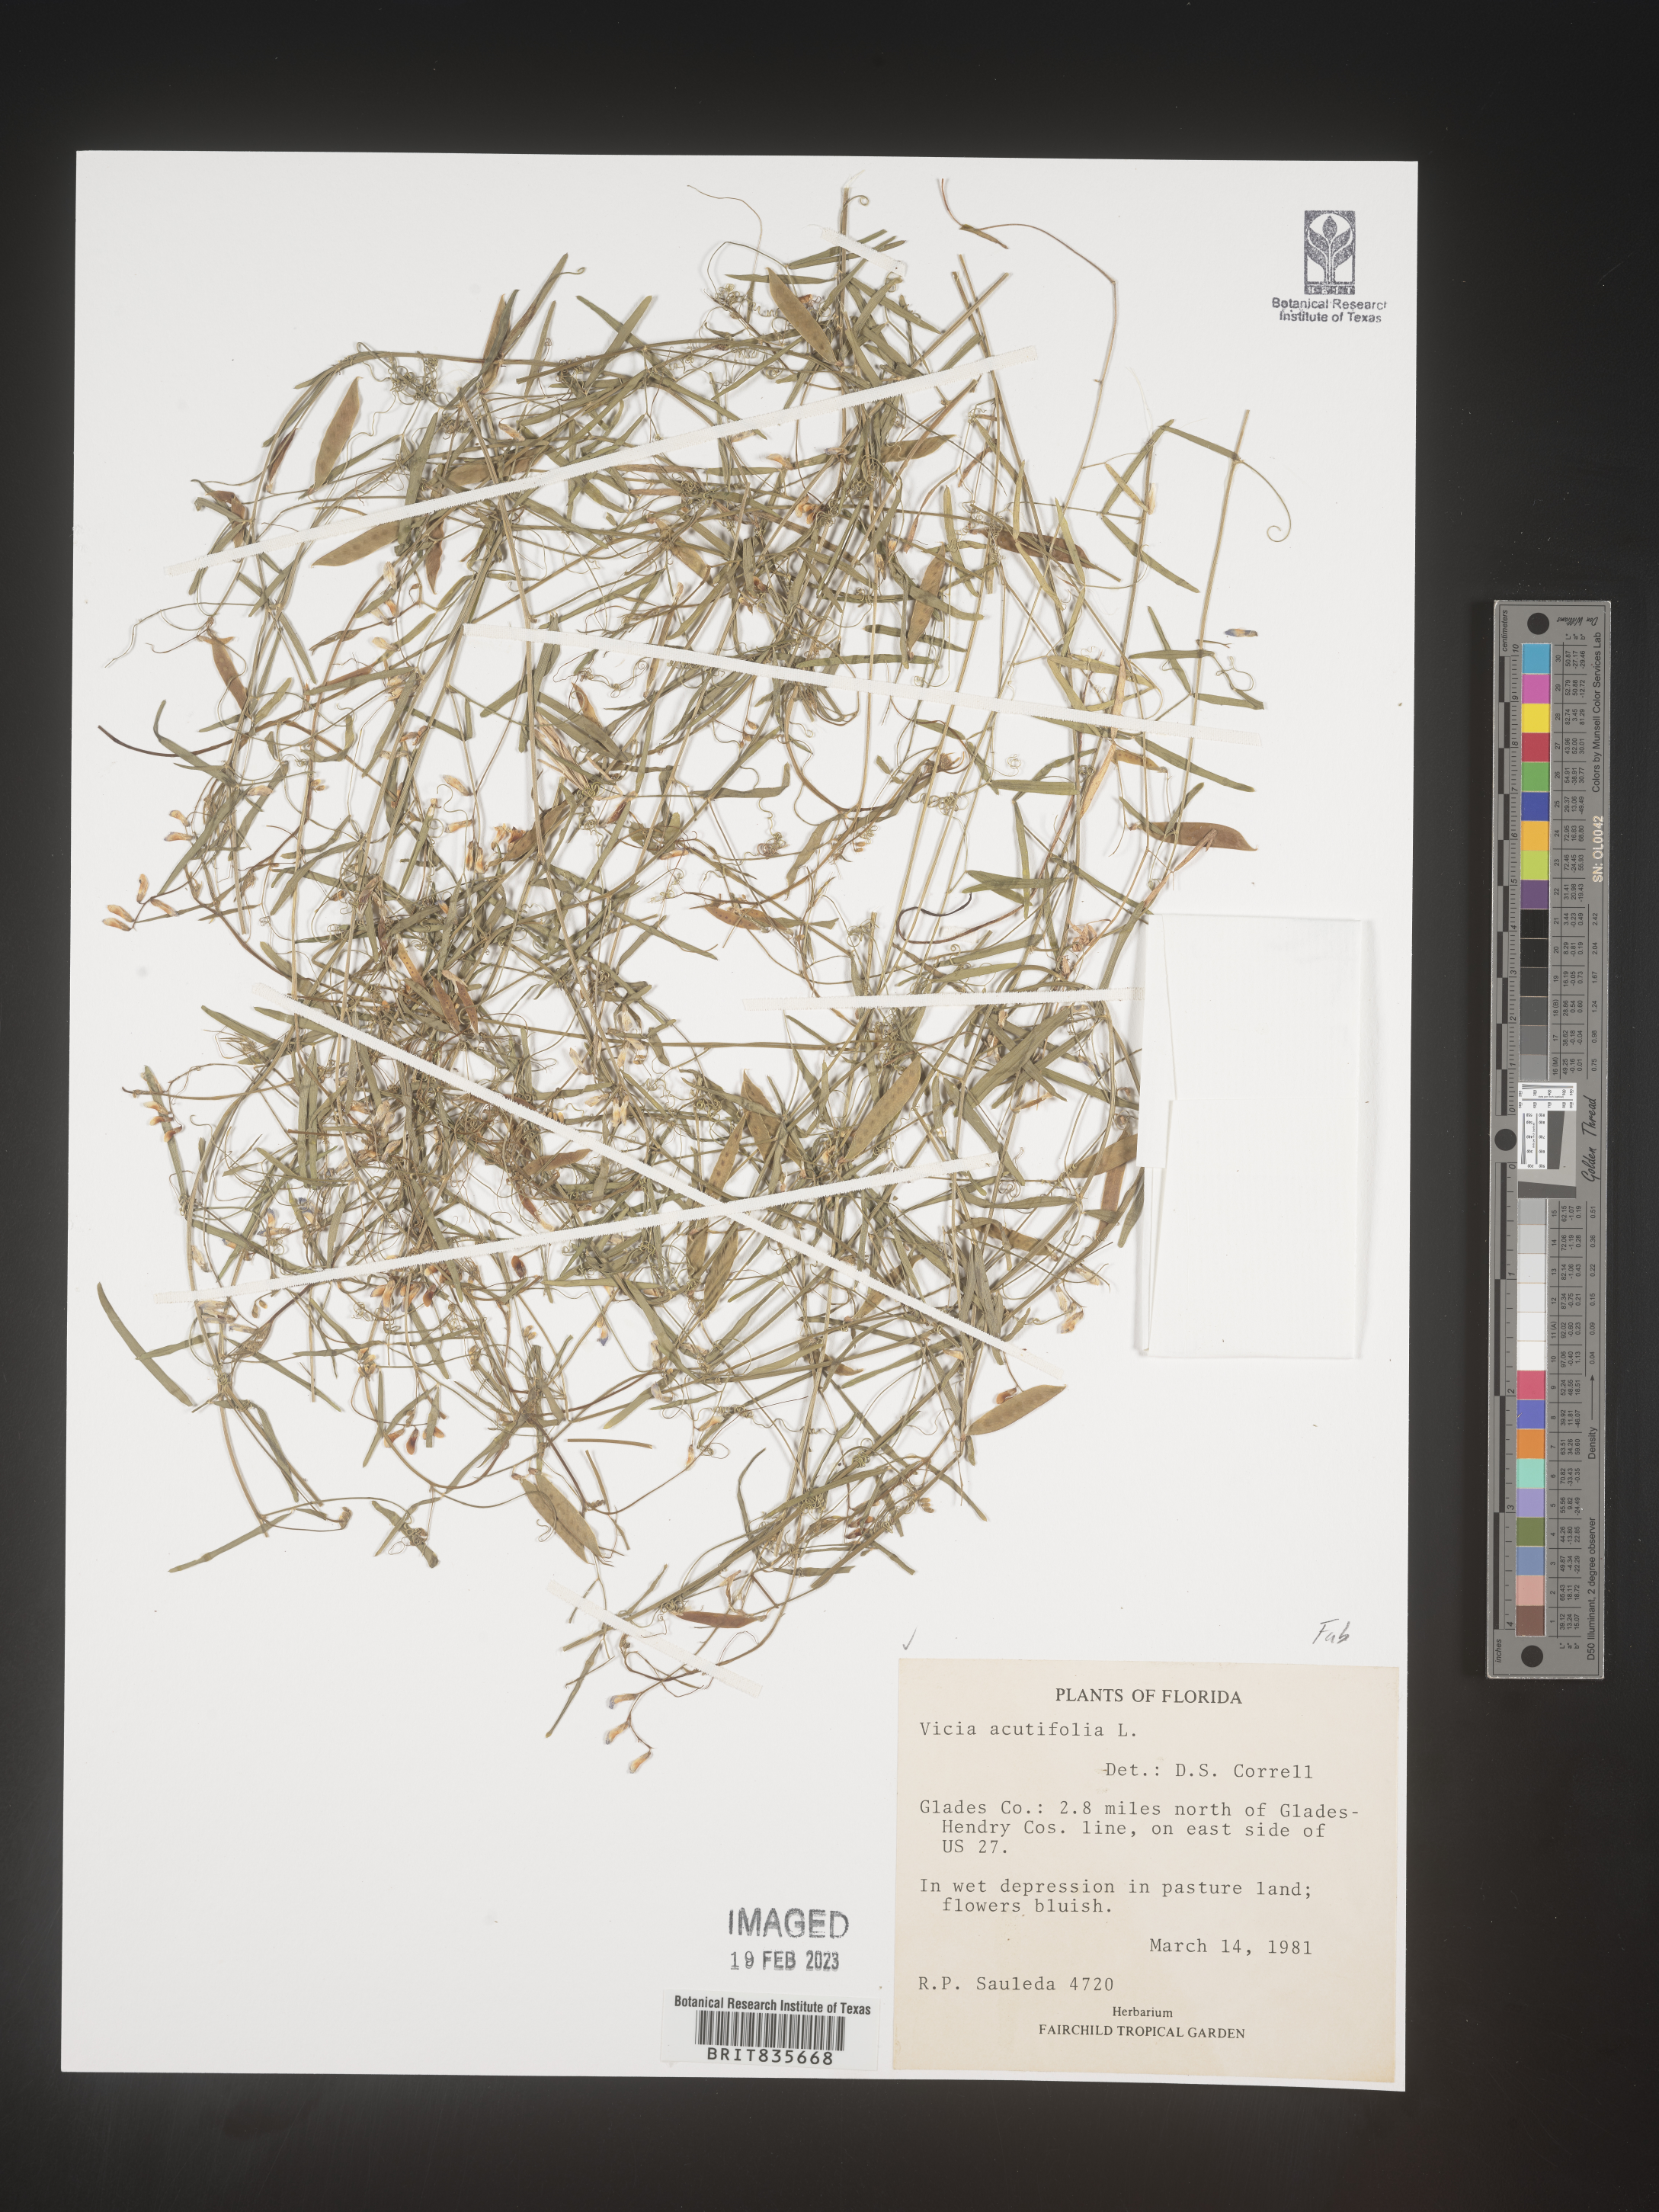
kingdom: Plantae
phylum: Tracheophyta
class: Magnoliopsida
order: Fabales
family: Fabaceae
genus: Vicia
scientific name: Vicia acutifolia
